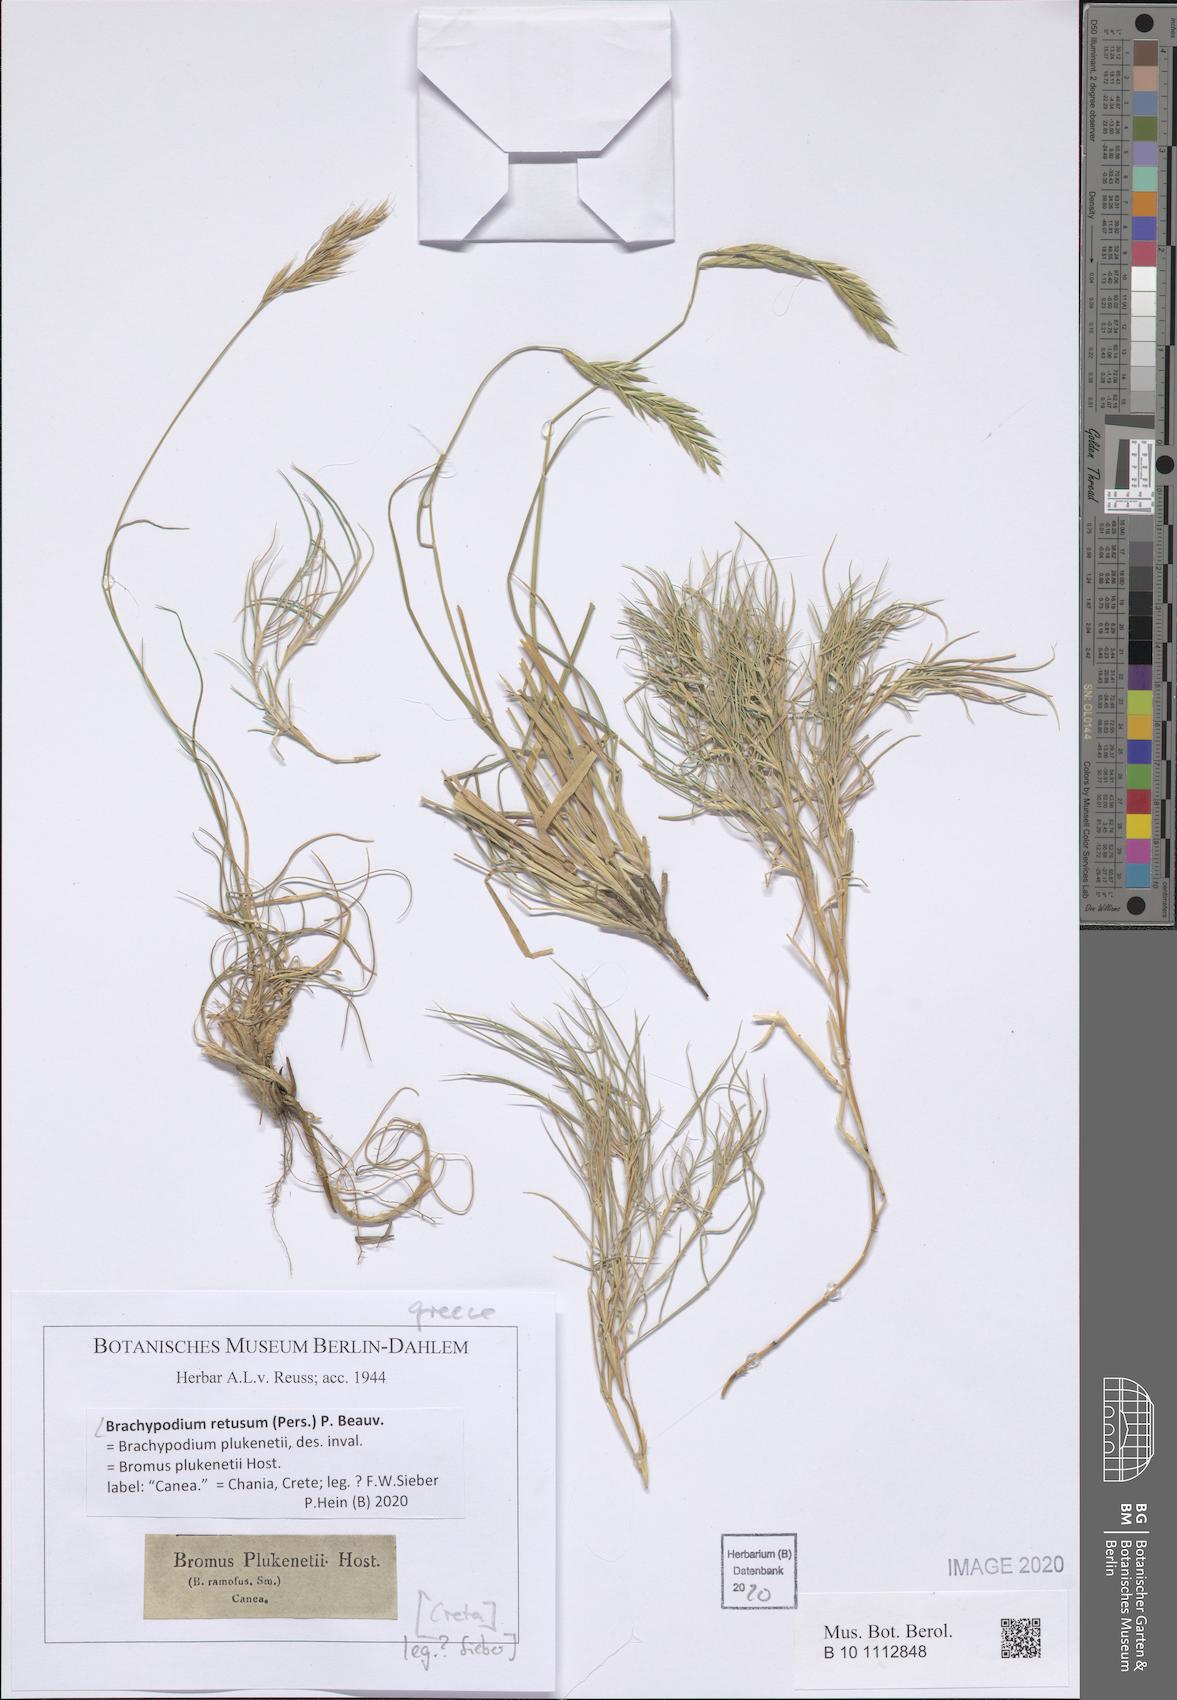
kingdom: Plantae
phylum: Tracheophyta
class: Liliopsida
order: Poales
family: Poaceae
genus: Brachypodium
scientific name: Brachypodium retusum
